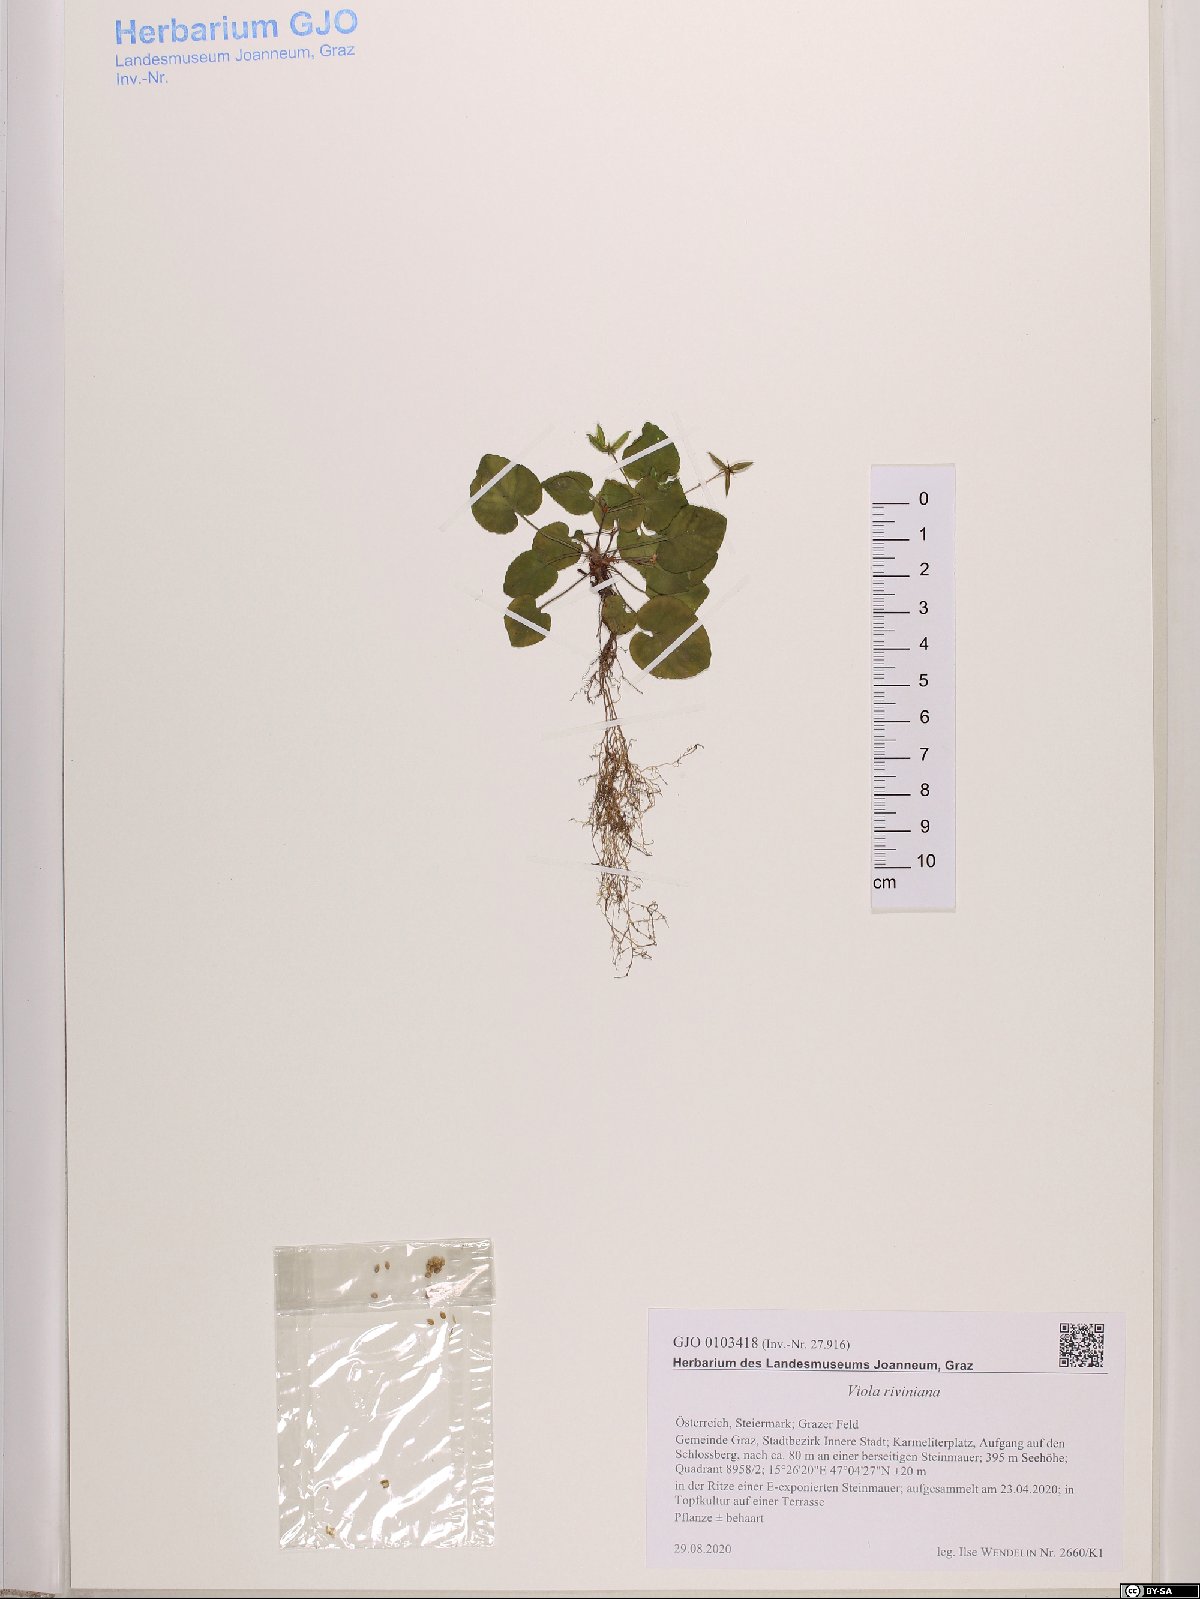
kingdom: Plantae
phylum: Tracheophyta
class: Magnoliopsida
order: Malpighiales
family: Violaceae
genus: Viola
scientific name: Viola riviniana
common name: Common dog-violet
